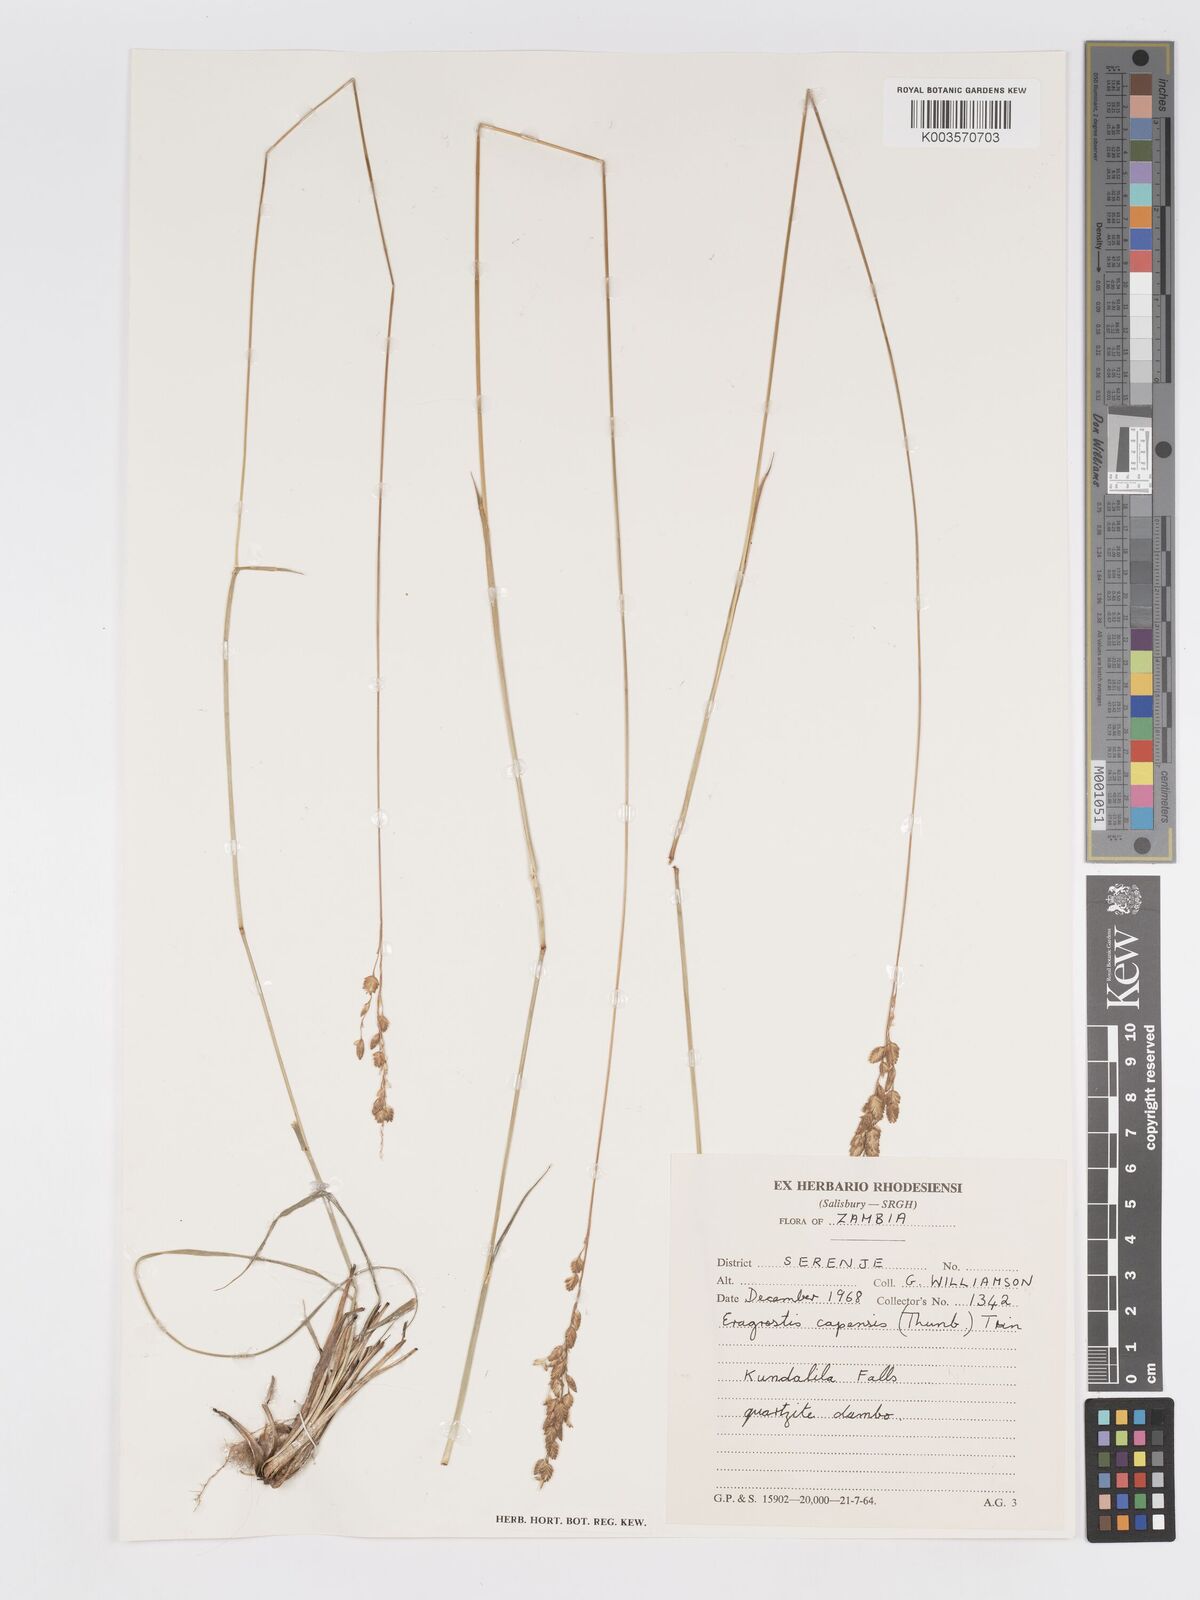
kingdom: Plantae
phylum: Tracheophyta
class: Liliopsida
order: Poales
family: Poaceae
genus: Eragrostis
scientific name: Eragrostis capensis
